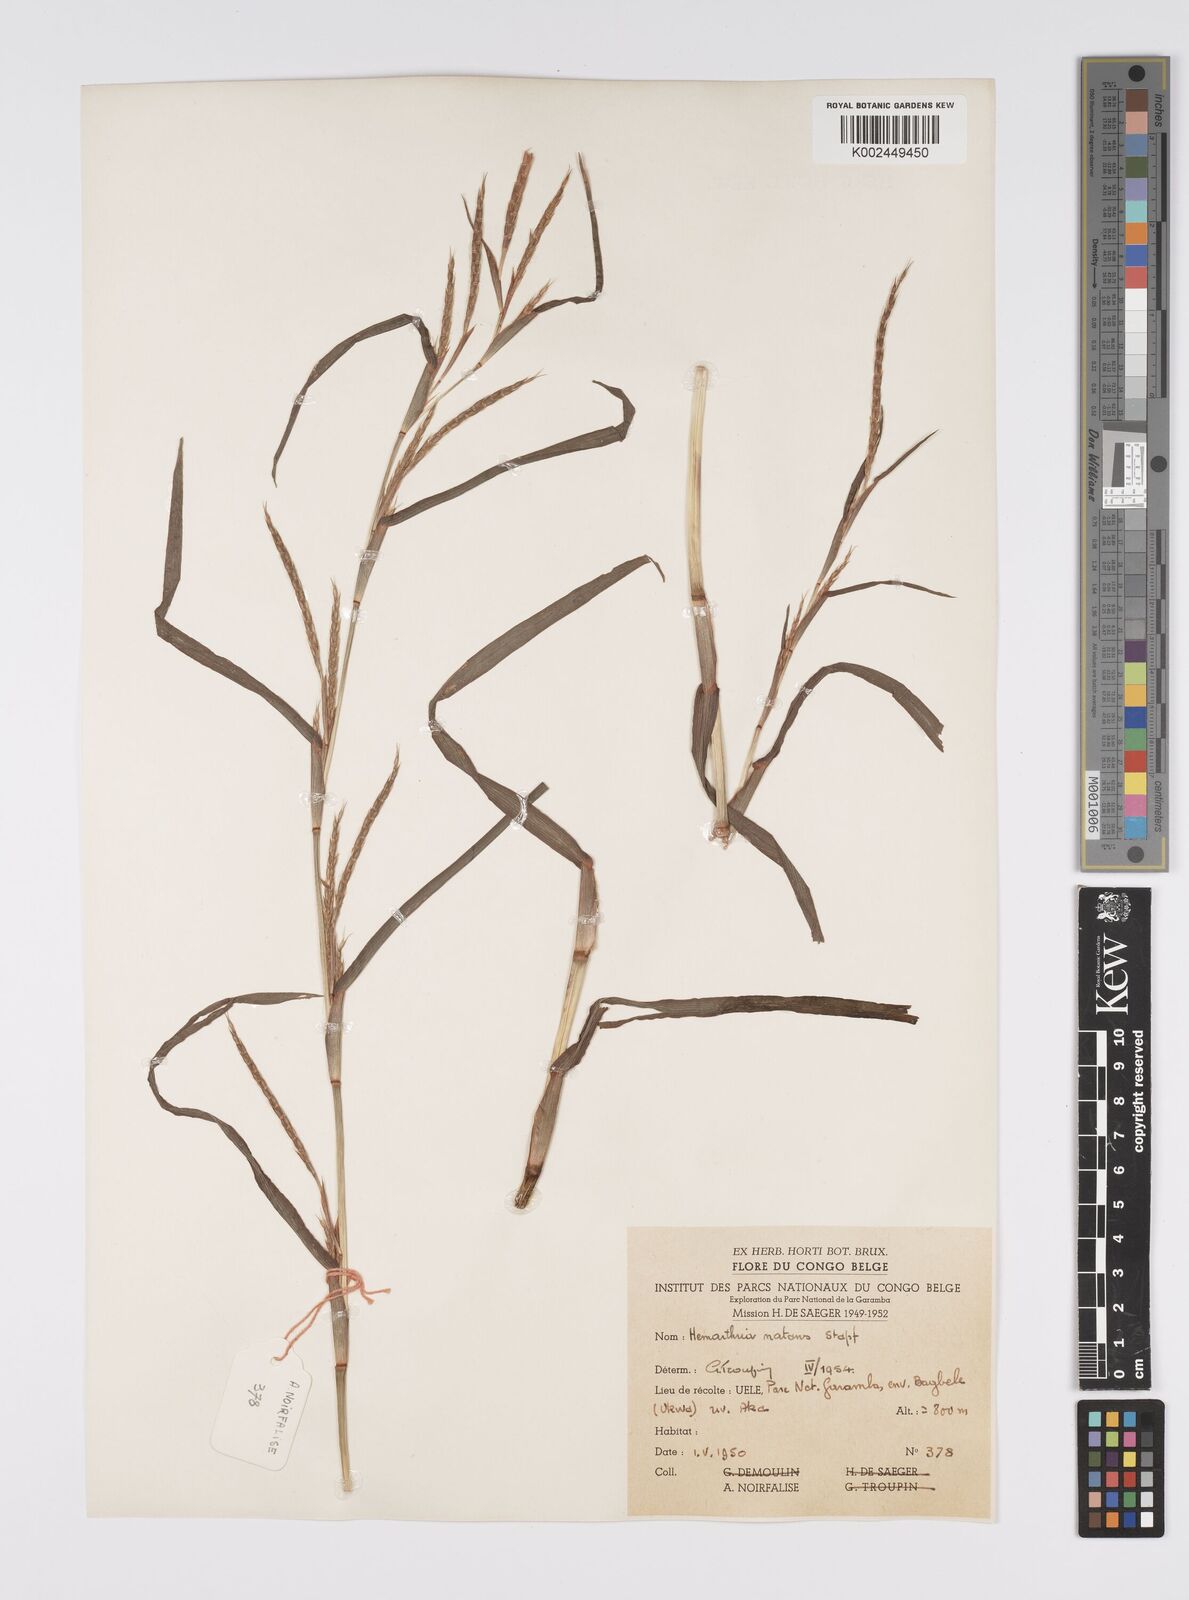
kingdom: Plantae
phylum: Tracheophyta
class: Liliopsida
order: Poales
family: Poaceae
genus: Hemarthria
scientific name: Hemarthria natans
